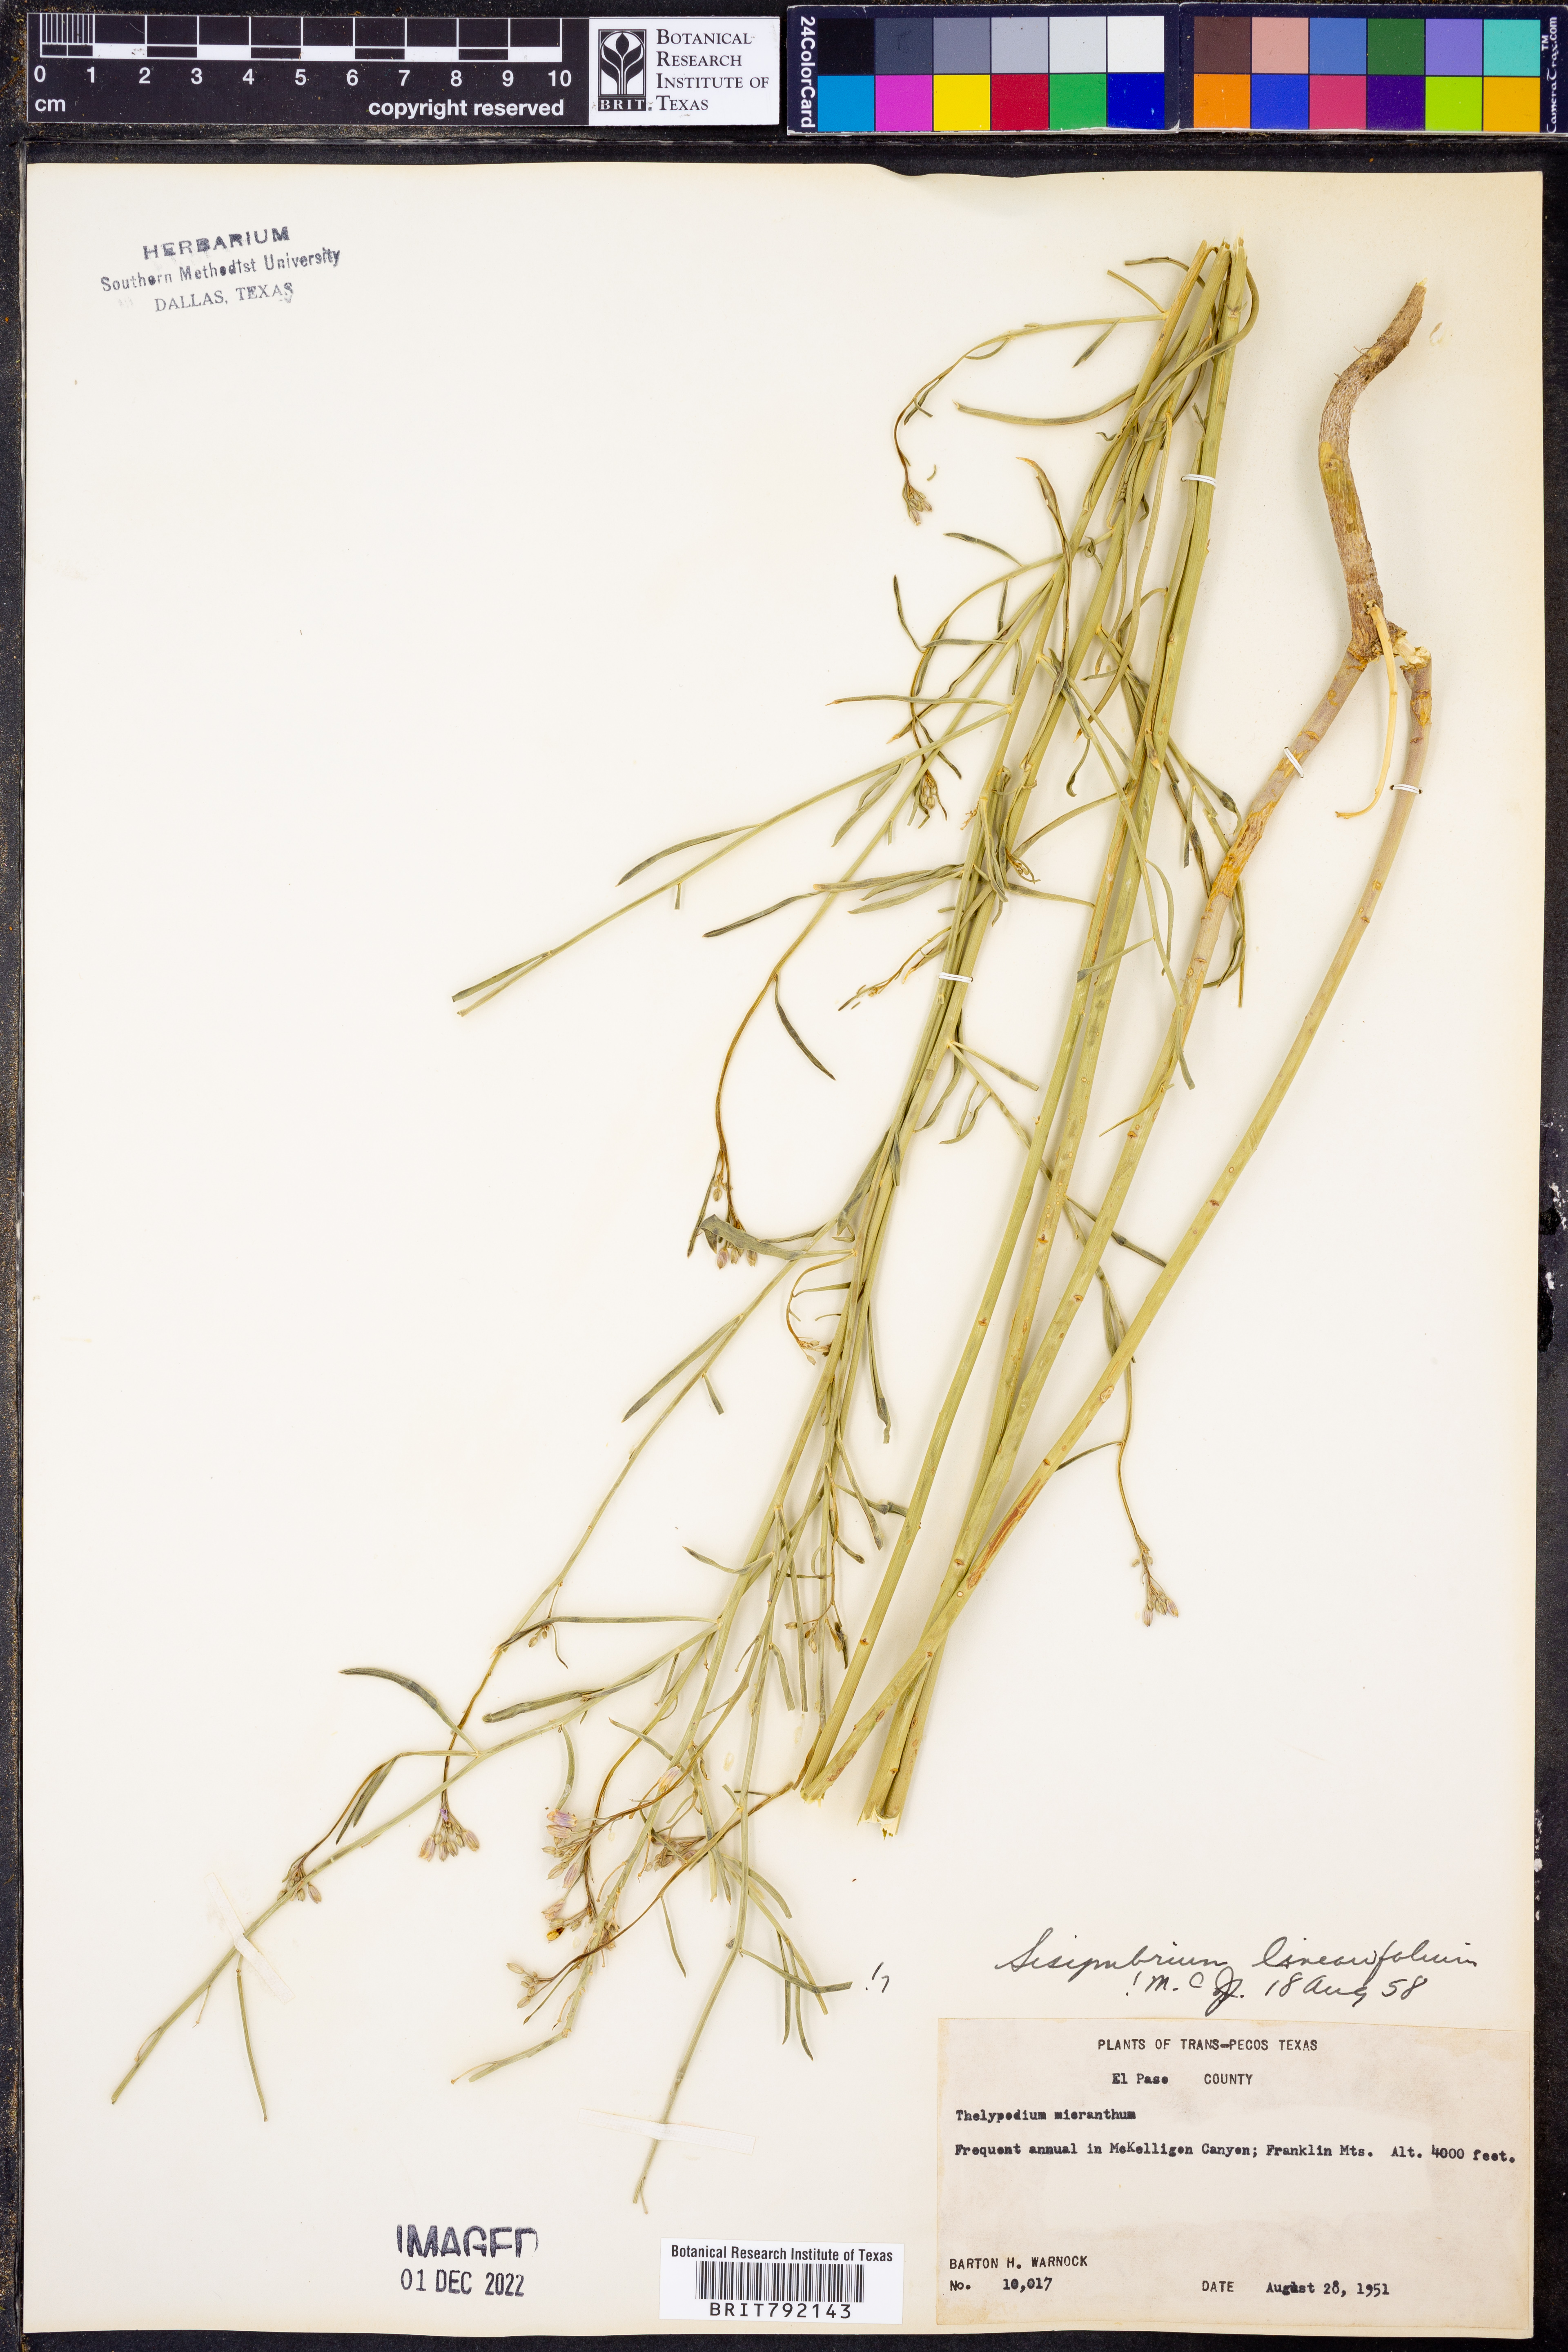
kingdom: Plantae
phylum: Tracheophyta
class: Magnoliopsida
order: Brassicales
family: Brassicaceae
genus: Hesperidanthus
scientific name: Hesperidanthus linearifolius
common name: Slim-leaf plains mustard
